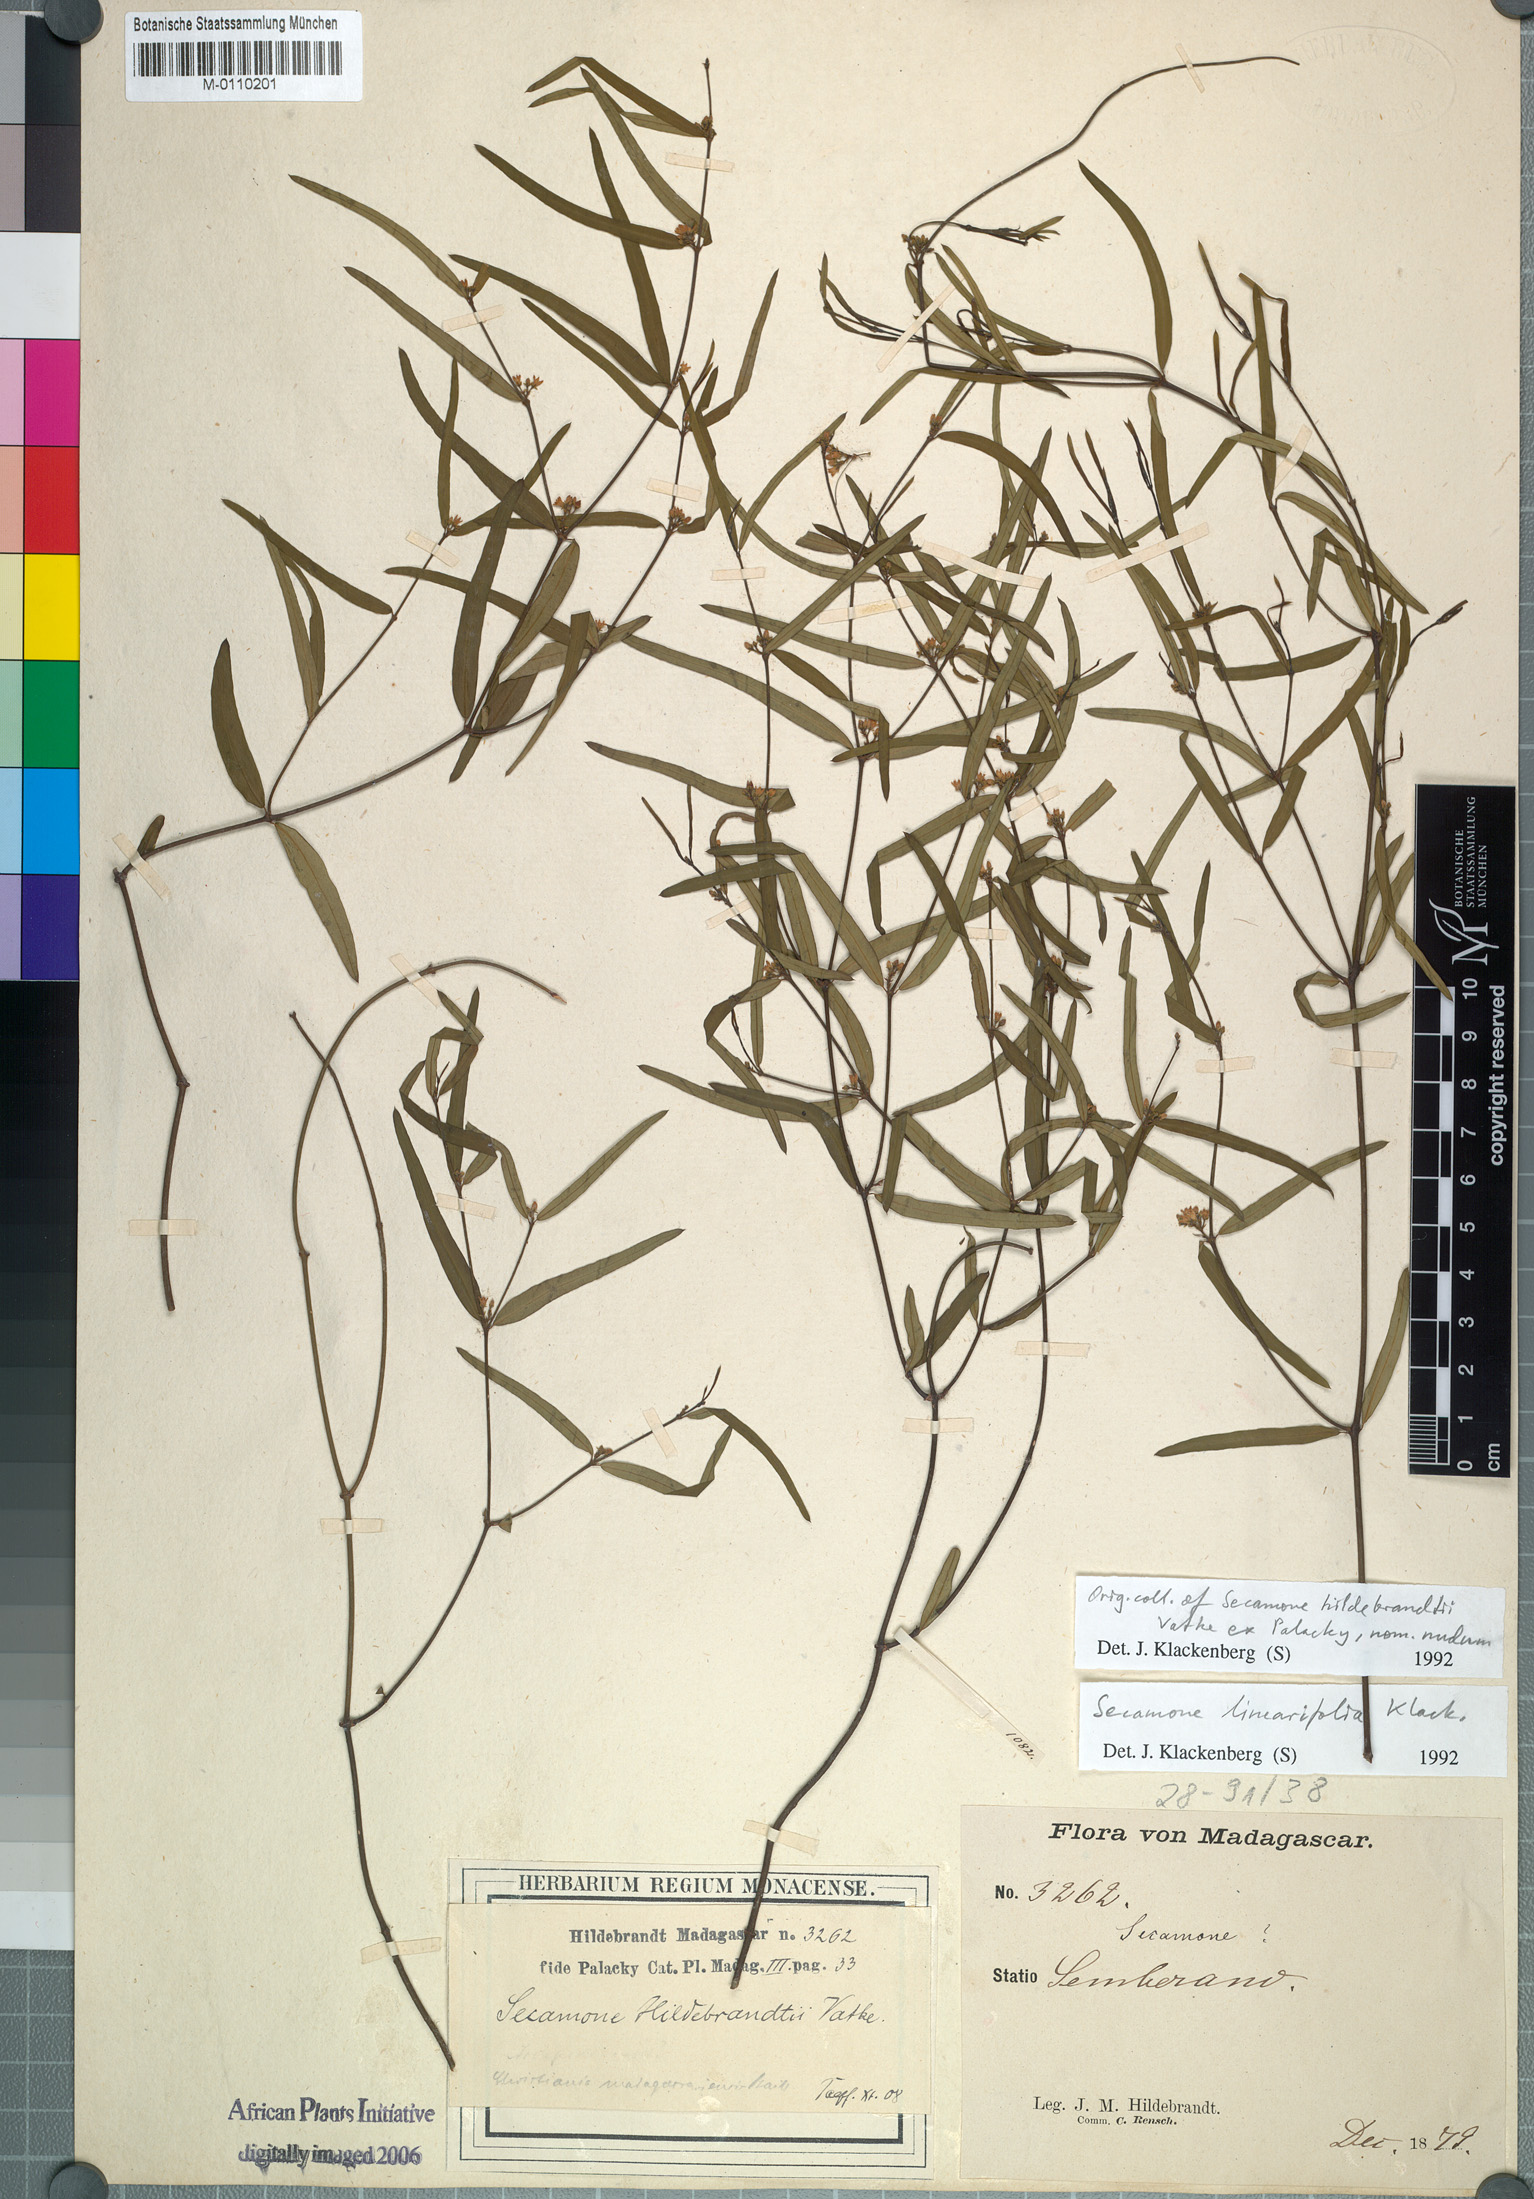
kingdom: Plantae
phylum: Tracheophyta
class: Magnoliopsida
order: Gentianales
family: Apocynaceae
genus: Secamone
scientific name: Secamone linearifolia
